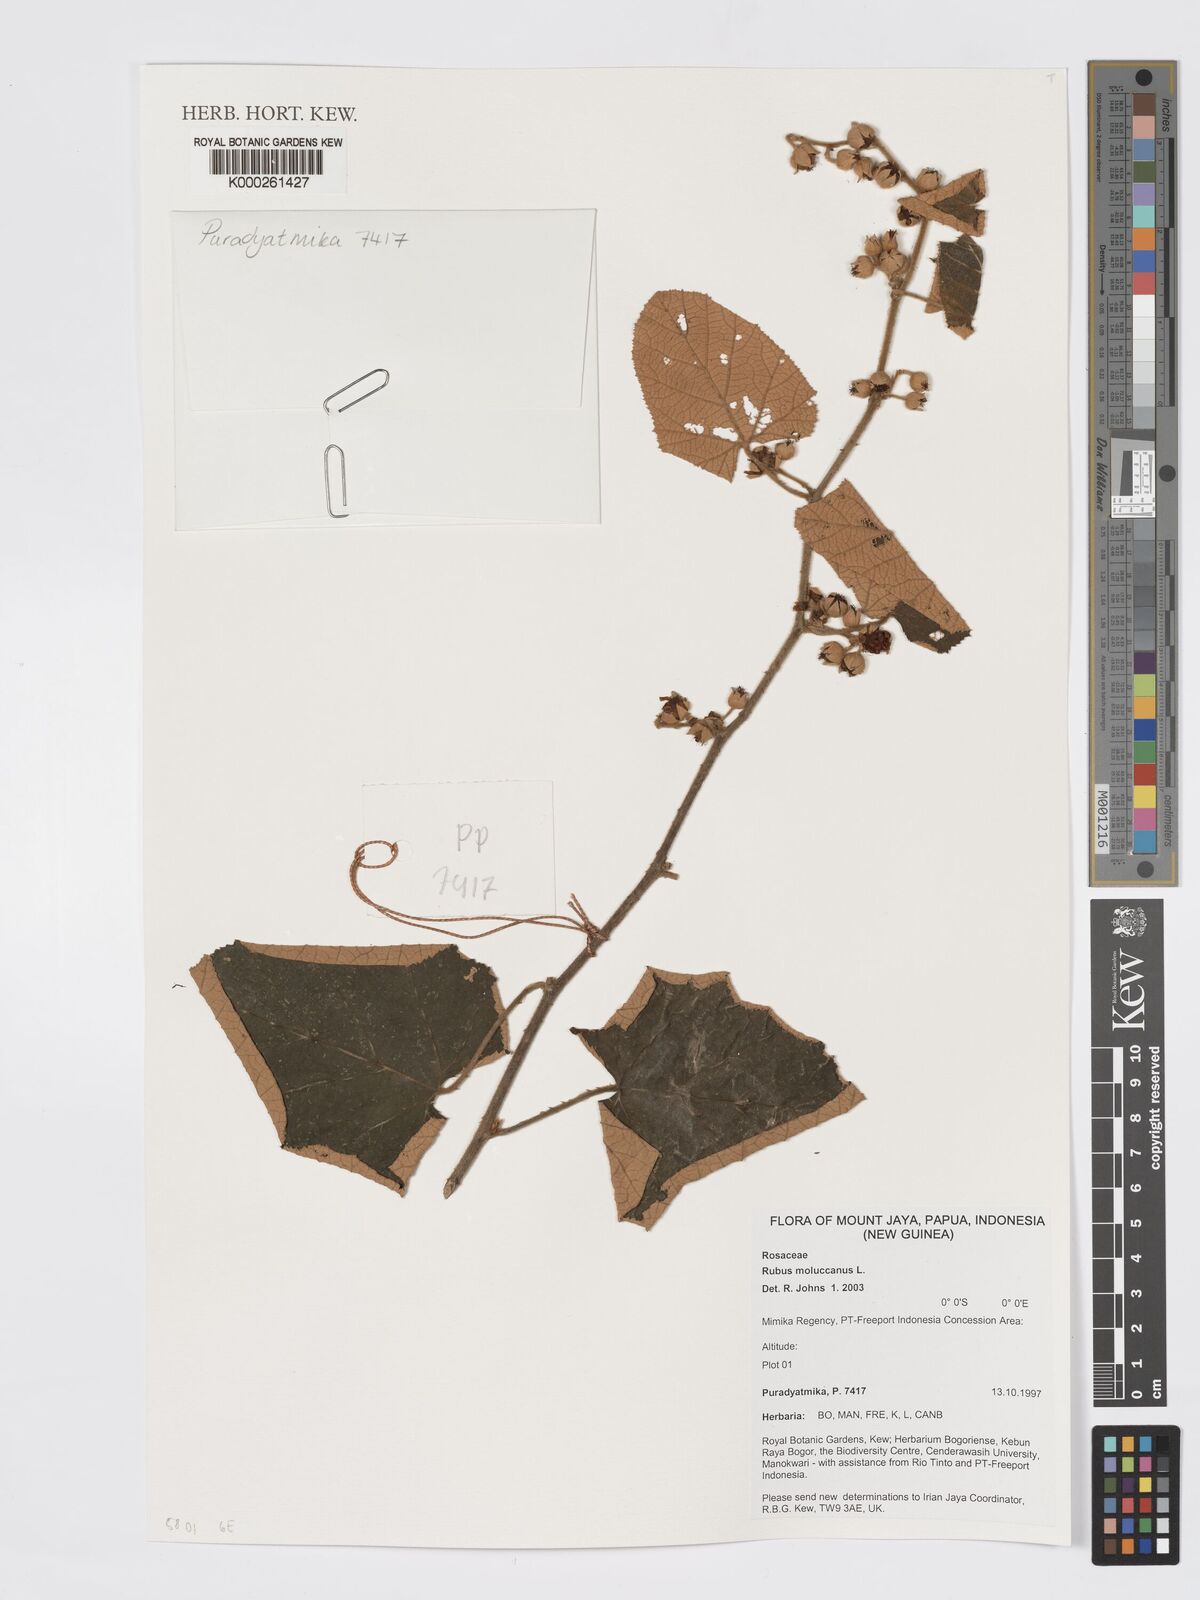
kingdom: Plantae
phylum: Tracheophyta
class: Magnoliopsida
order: Rosales
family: Rosaceae
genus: Rubus
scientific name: Rubus moluccanus
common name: Wild raspberry
